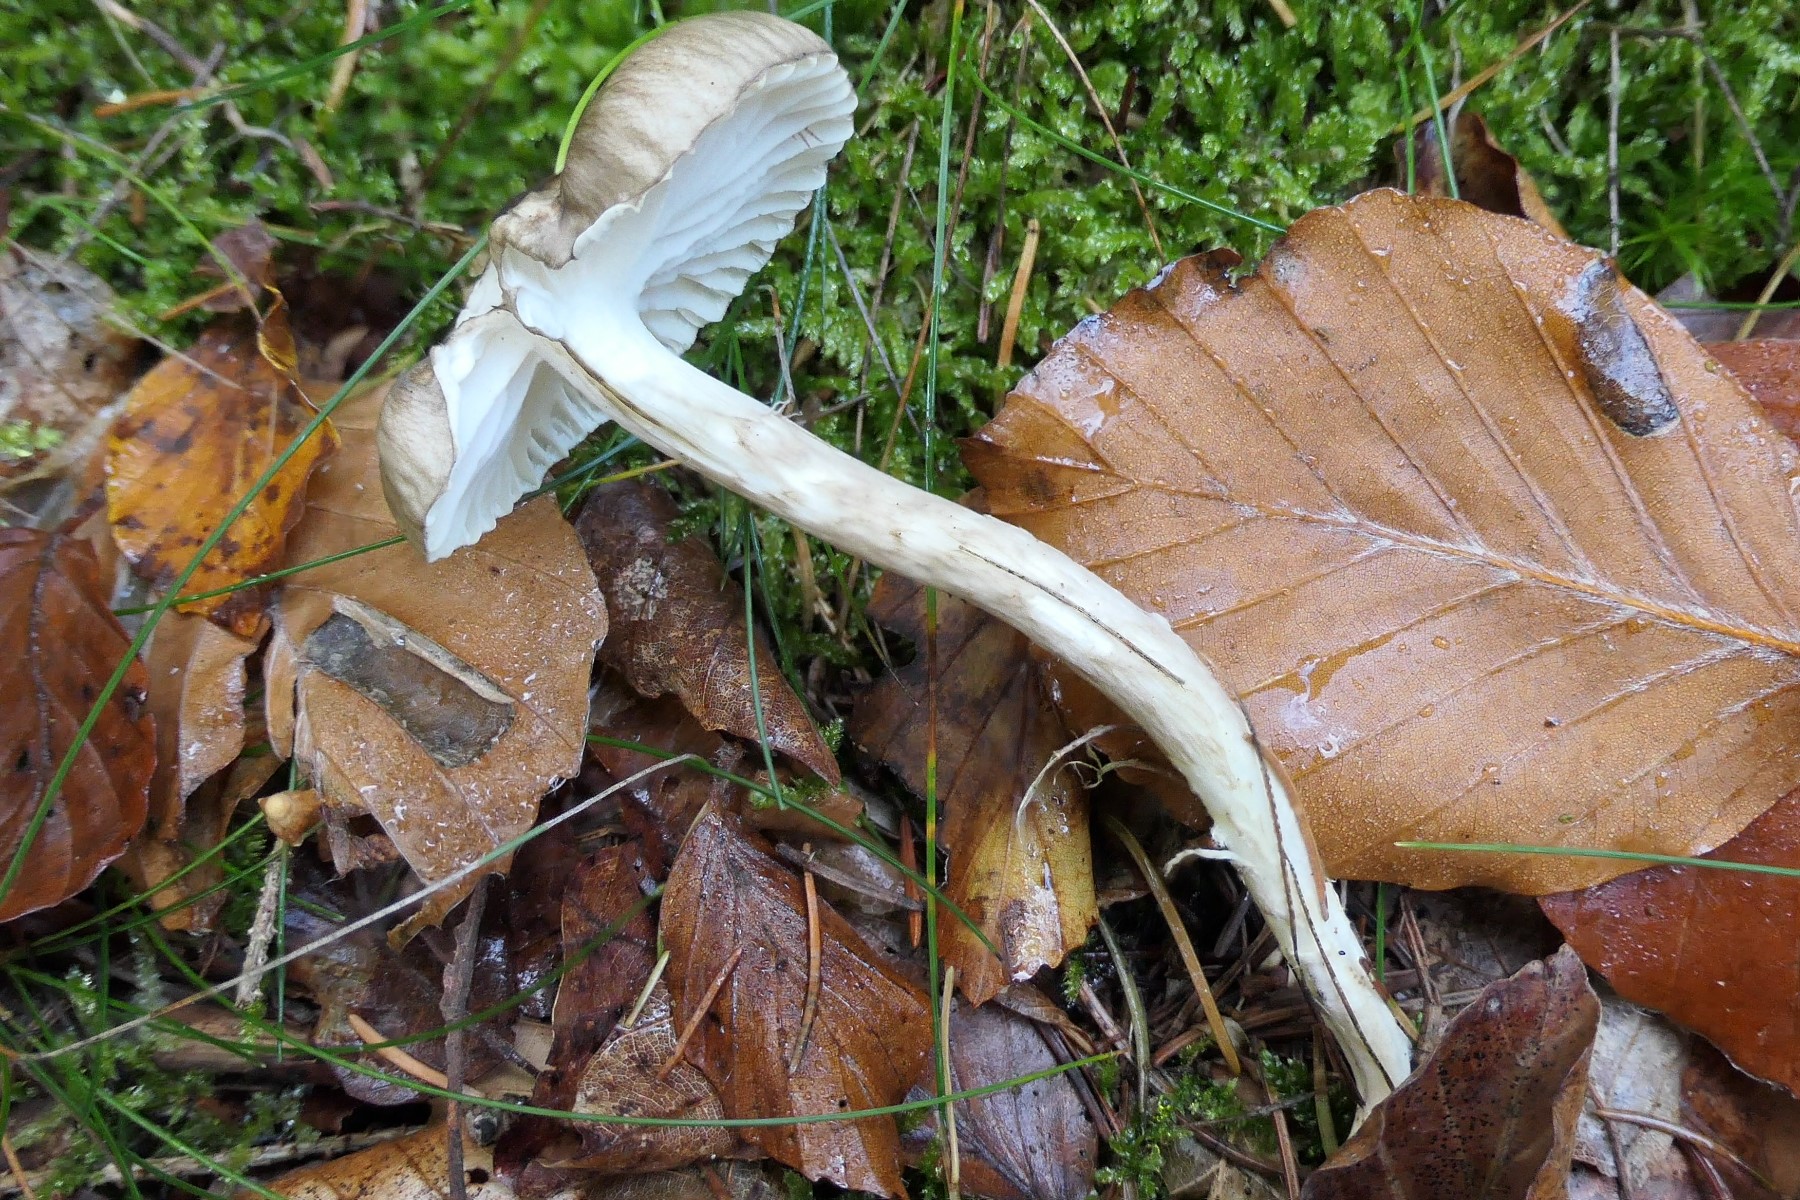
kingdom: Fungi
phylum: Basidiomycota
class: Agaricomycetes
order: Agaricales
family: Hygrophoraceae
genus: Hygrophorus
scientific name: Hygrophorus olivaceoalbus
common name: hvidbrun sneglehat
